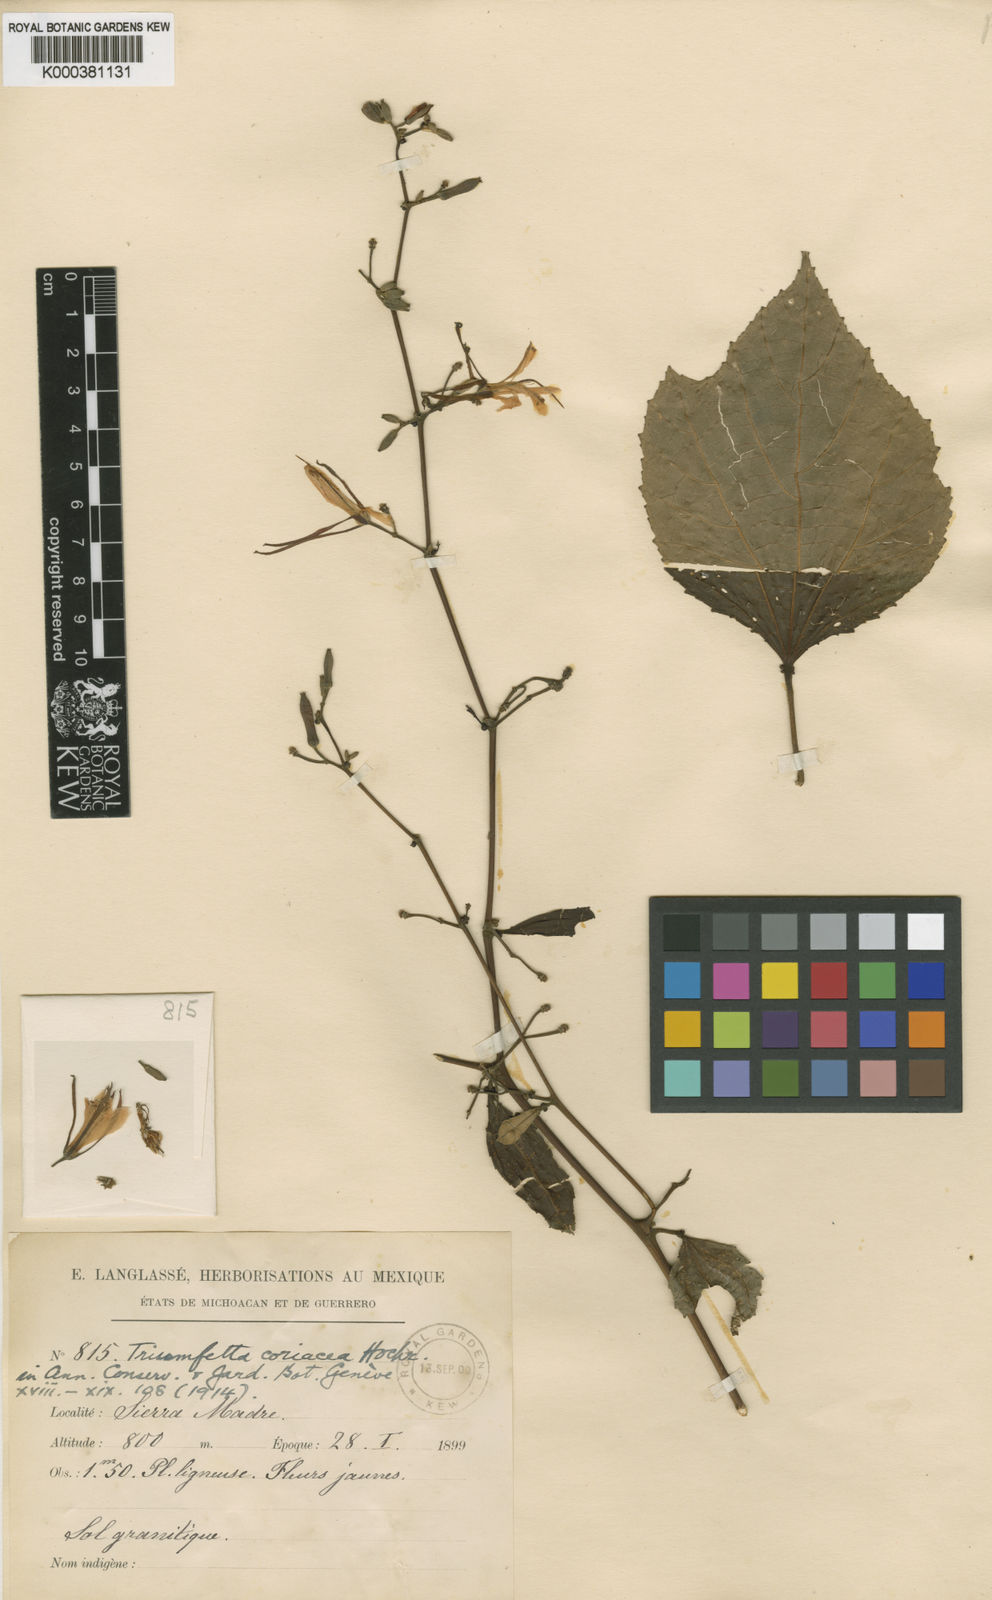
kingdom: Plantae
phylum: Tracheophyta
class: Magnoliopsida
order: Malvales
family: Malvaceae
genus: Triumfetta
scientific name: Triumfetta coriacea
